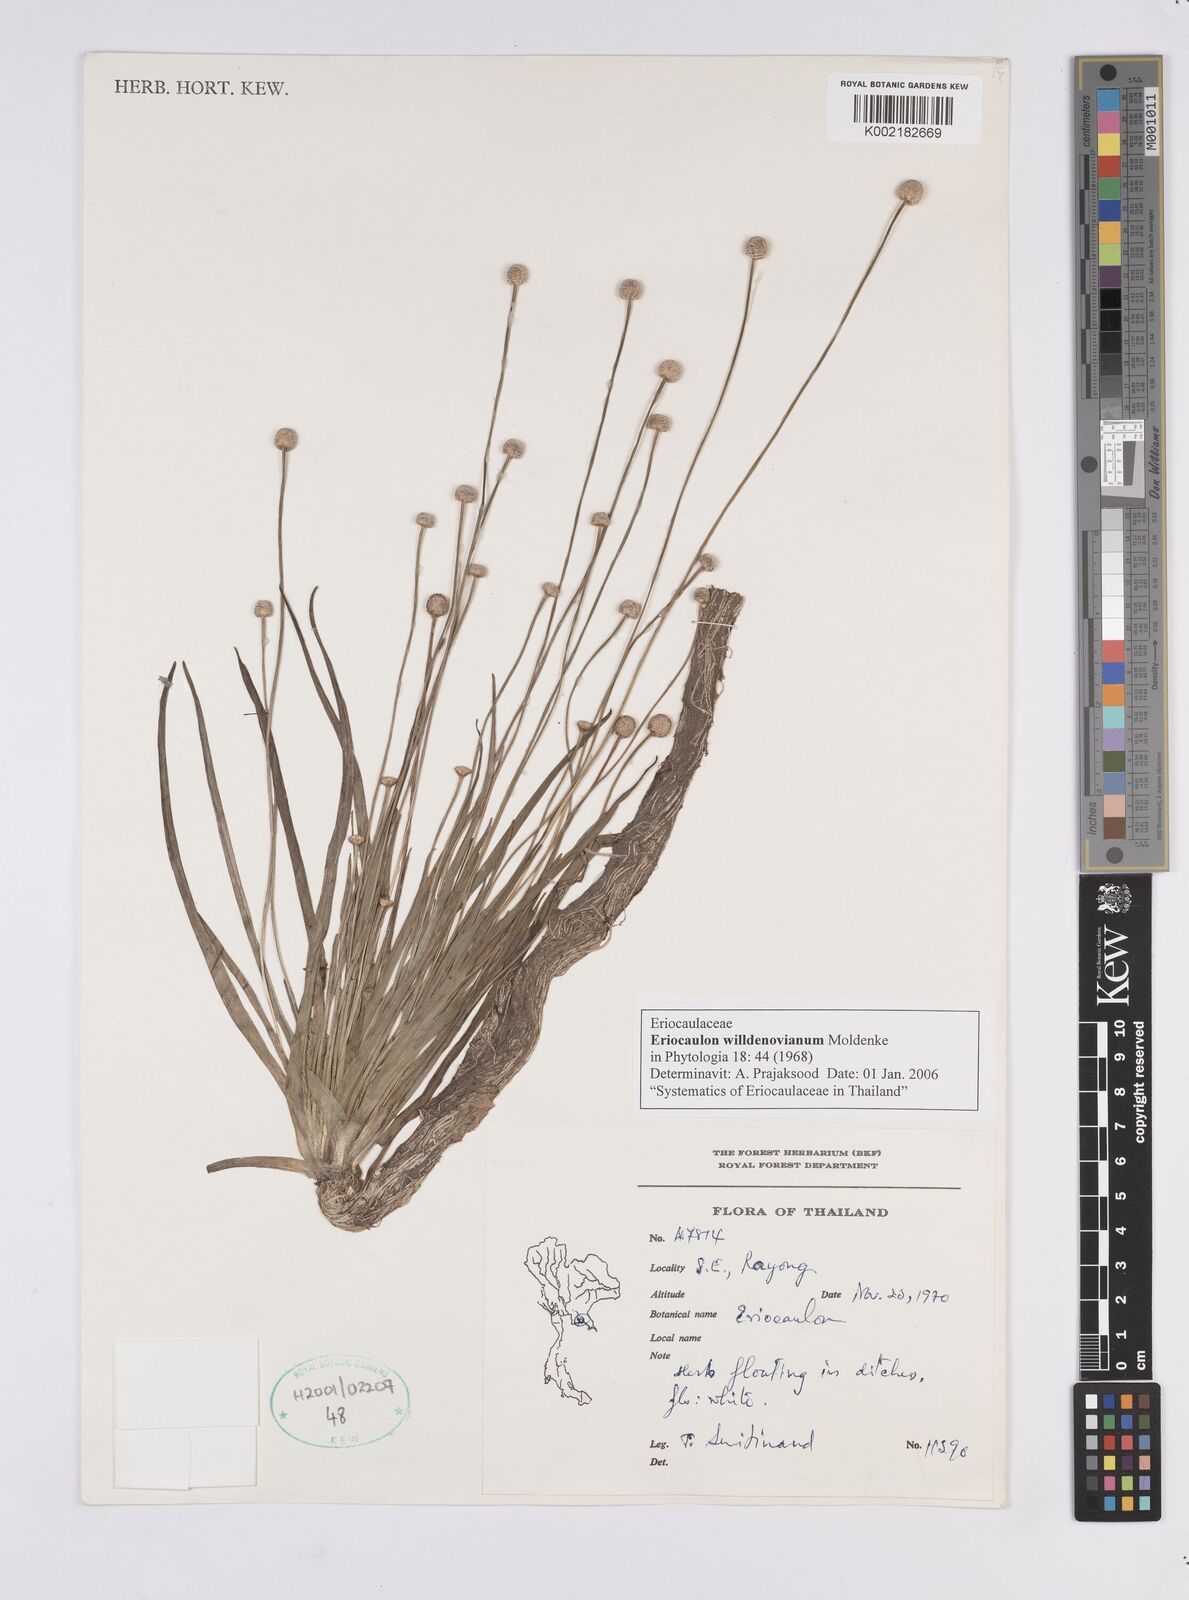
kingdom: Plantae
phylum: Tracheophyta
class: Liliopsida
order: Poales
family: Eriocaulaceae
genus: Eriocaulon
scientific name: Eriocaulon willdenovianum
